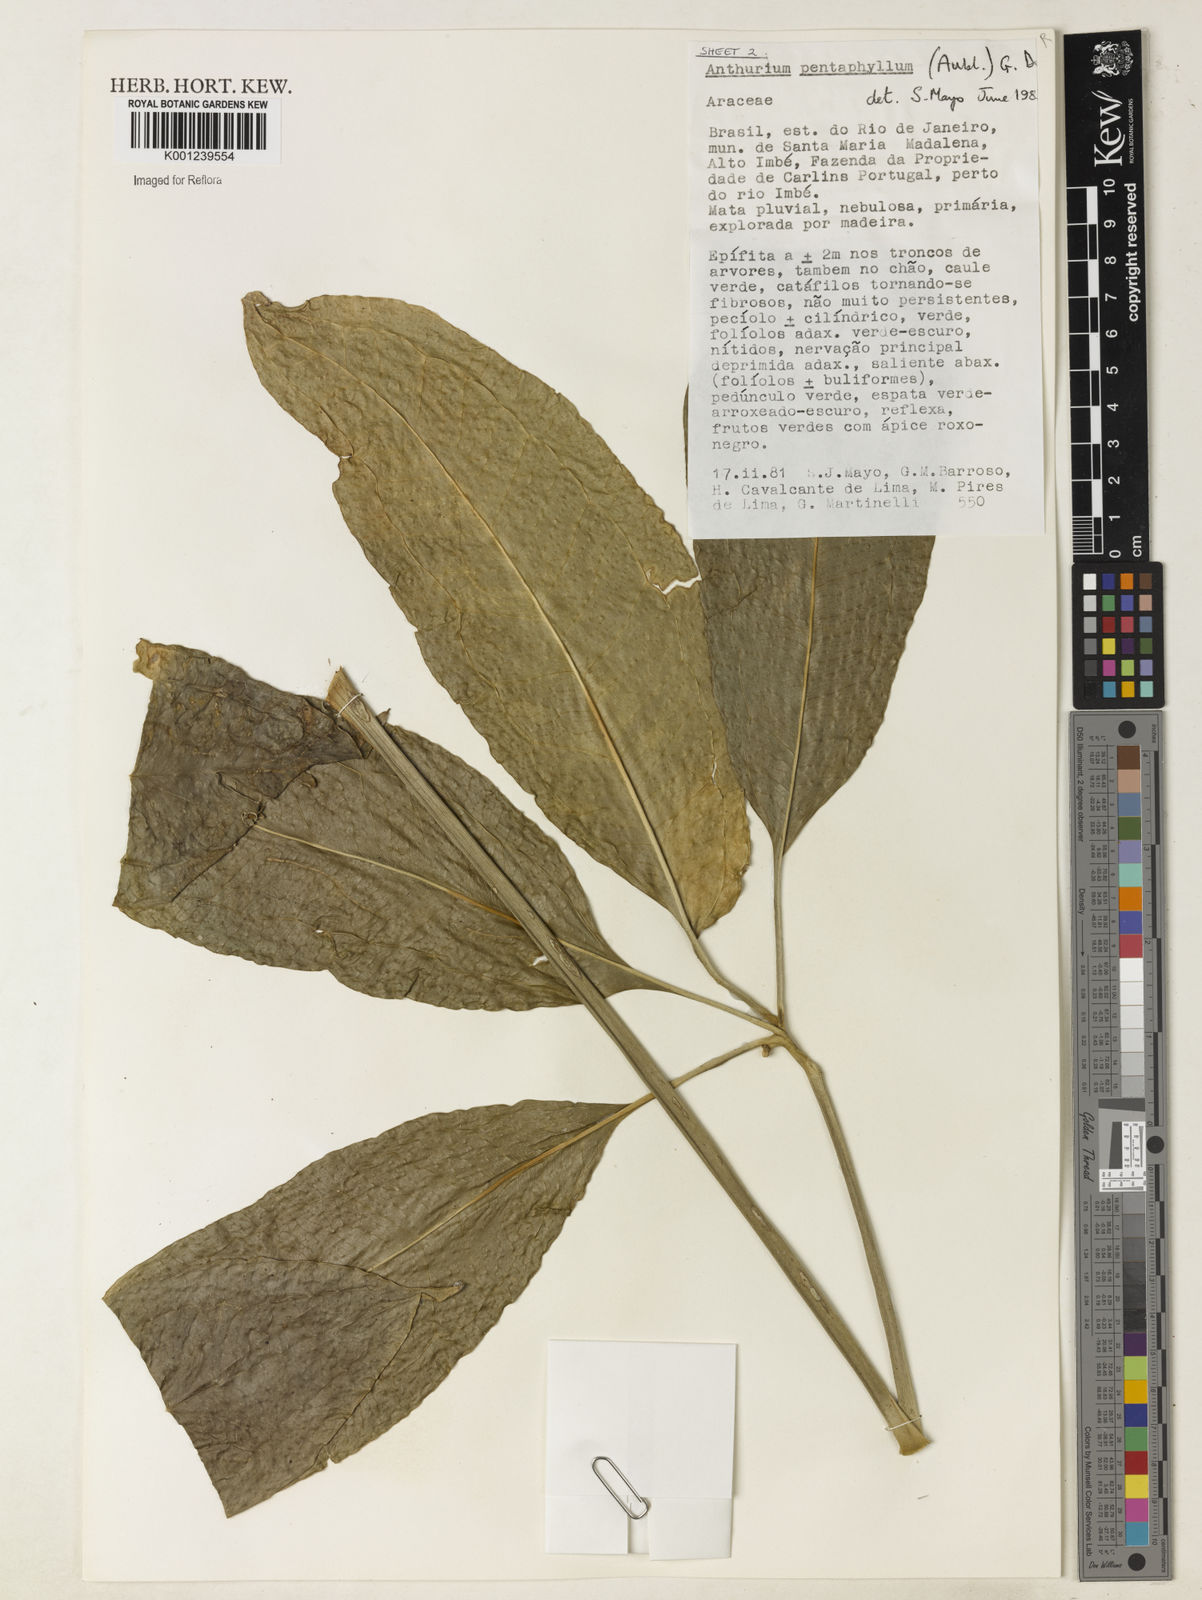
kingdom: Plantae
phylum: Tracheophyta
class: Liliopsida
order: Alismatales
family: Araceae
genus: Anthurium
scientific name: Anthurium pentaphyllum
